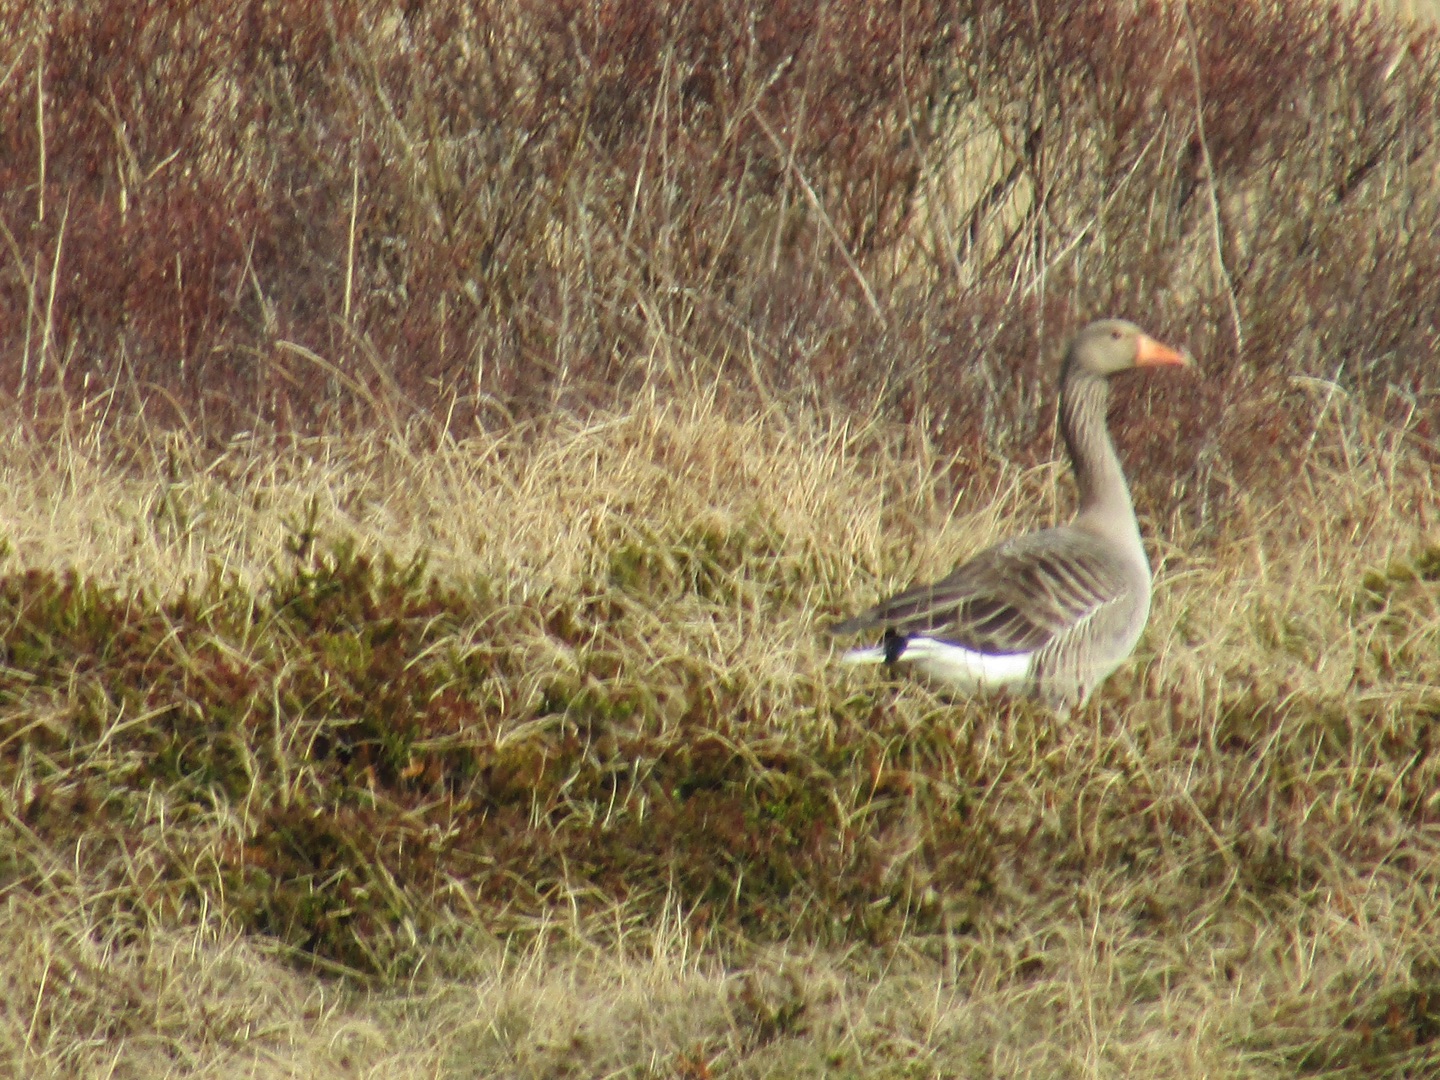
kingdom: Animalia
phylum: Chordata
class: Aves
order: Anseriformes
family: Anatidae
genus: Anser
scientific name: Anser anser
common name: Grågås
